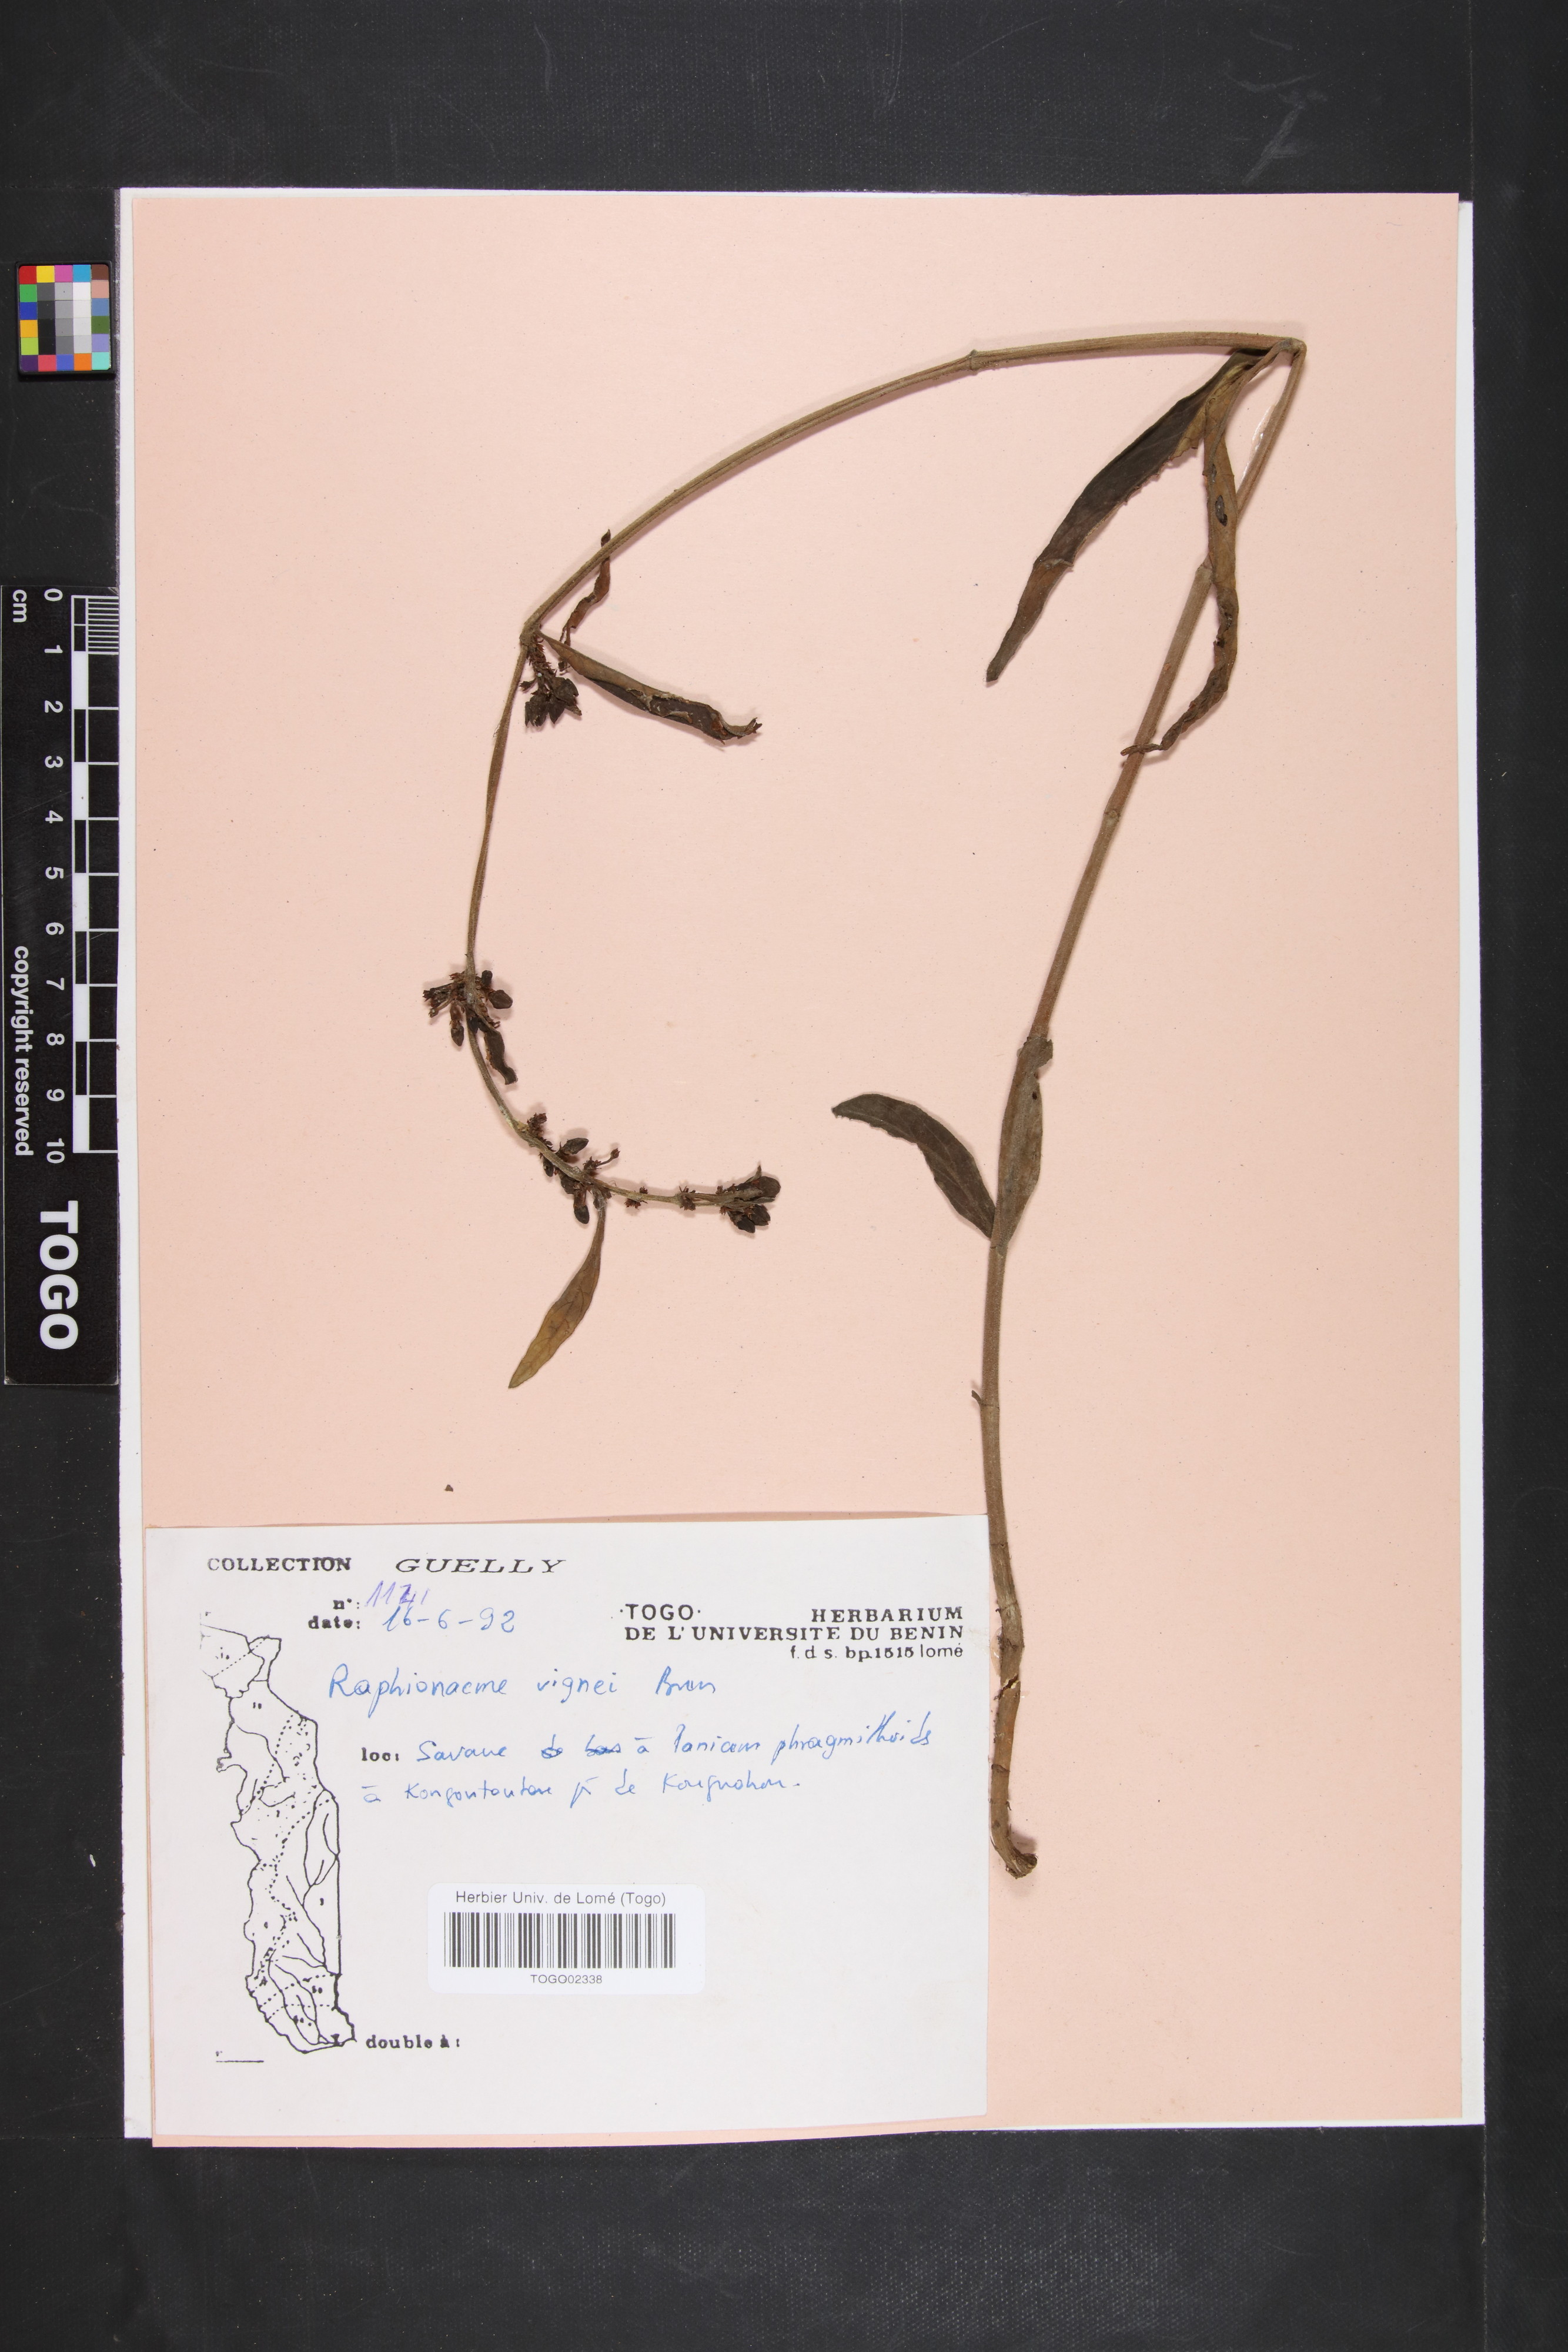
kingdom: Plantae
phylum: Tracheophyta
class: Magnoliopsida
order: Gentianales
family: Apocynaceae
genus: Raphionacme
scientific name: Raphionacme vignei
